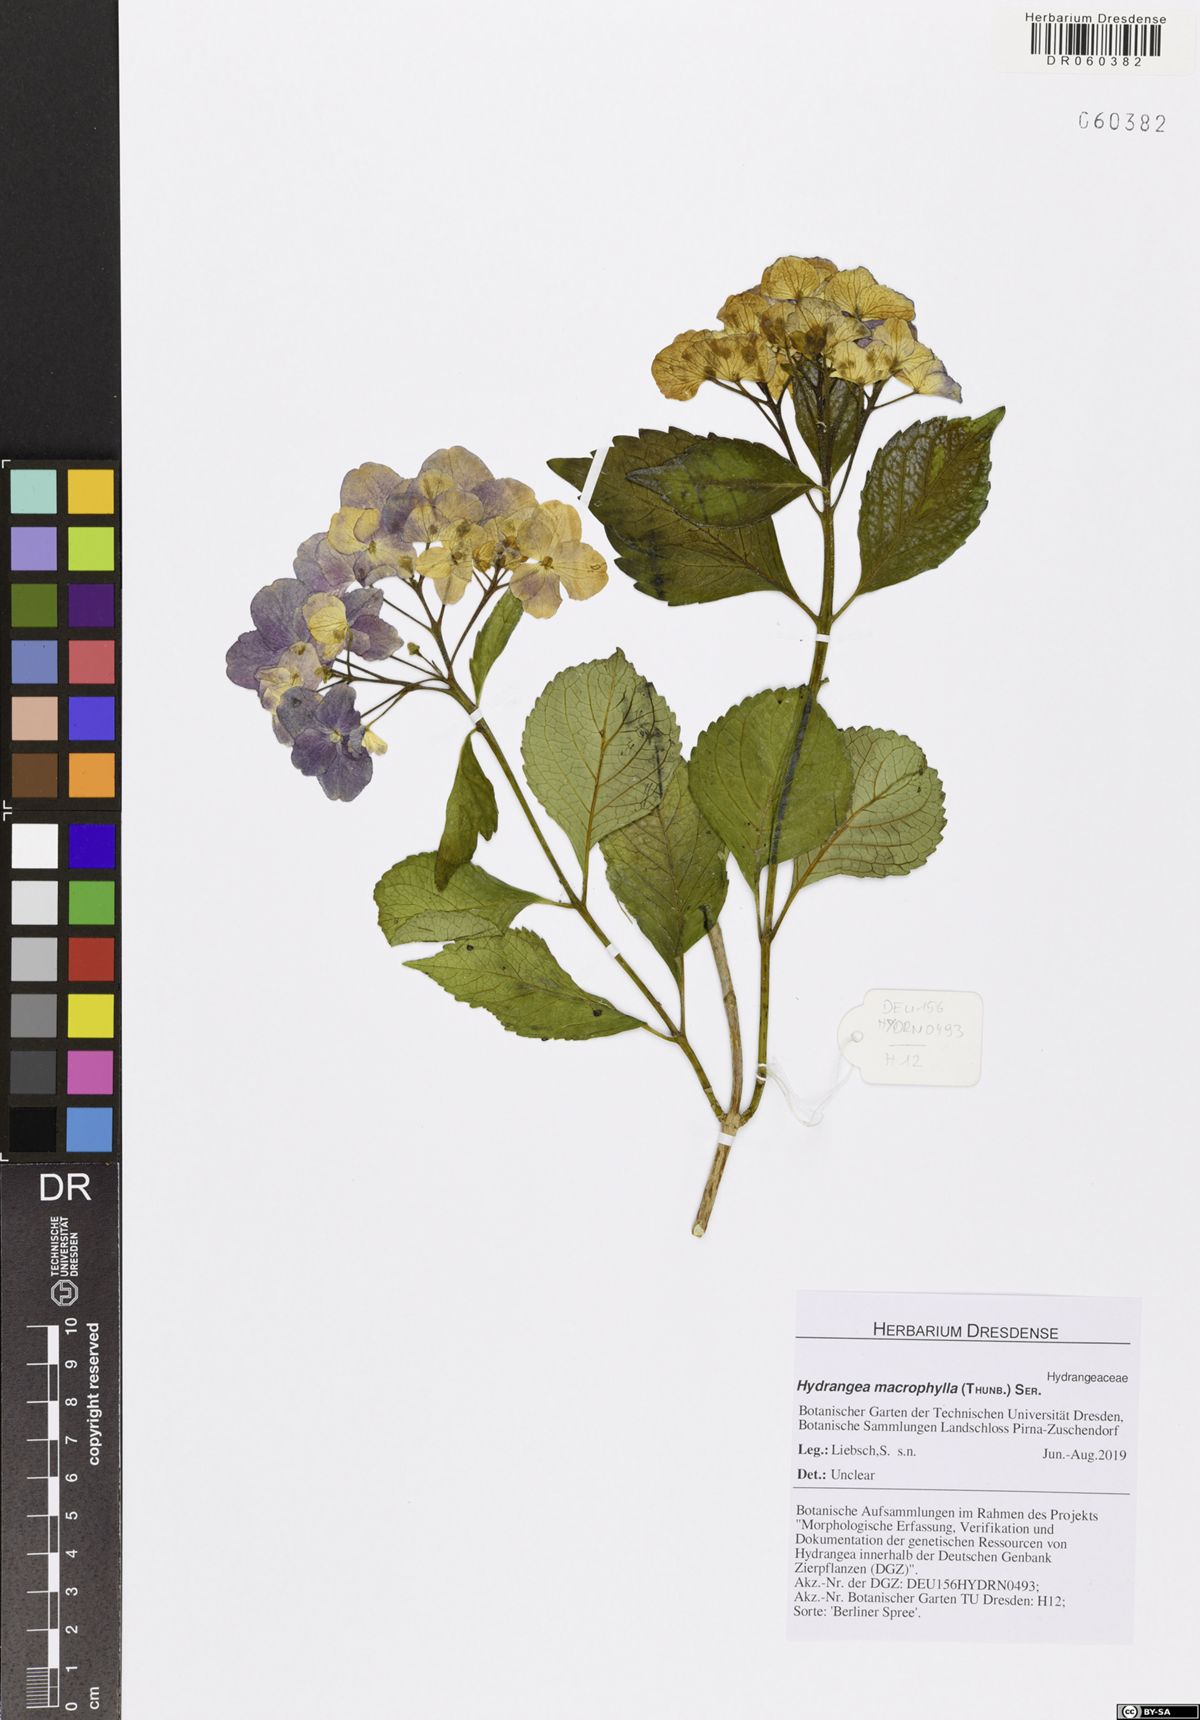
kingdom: Plantae
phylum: Tracheophyta
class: Magnoliopsida
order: Cornales
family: Hydrangeaceae
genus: Hydrangea
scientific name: Hydrangea macrophylla
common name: Hydrangea
